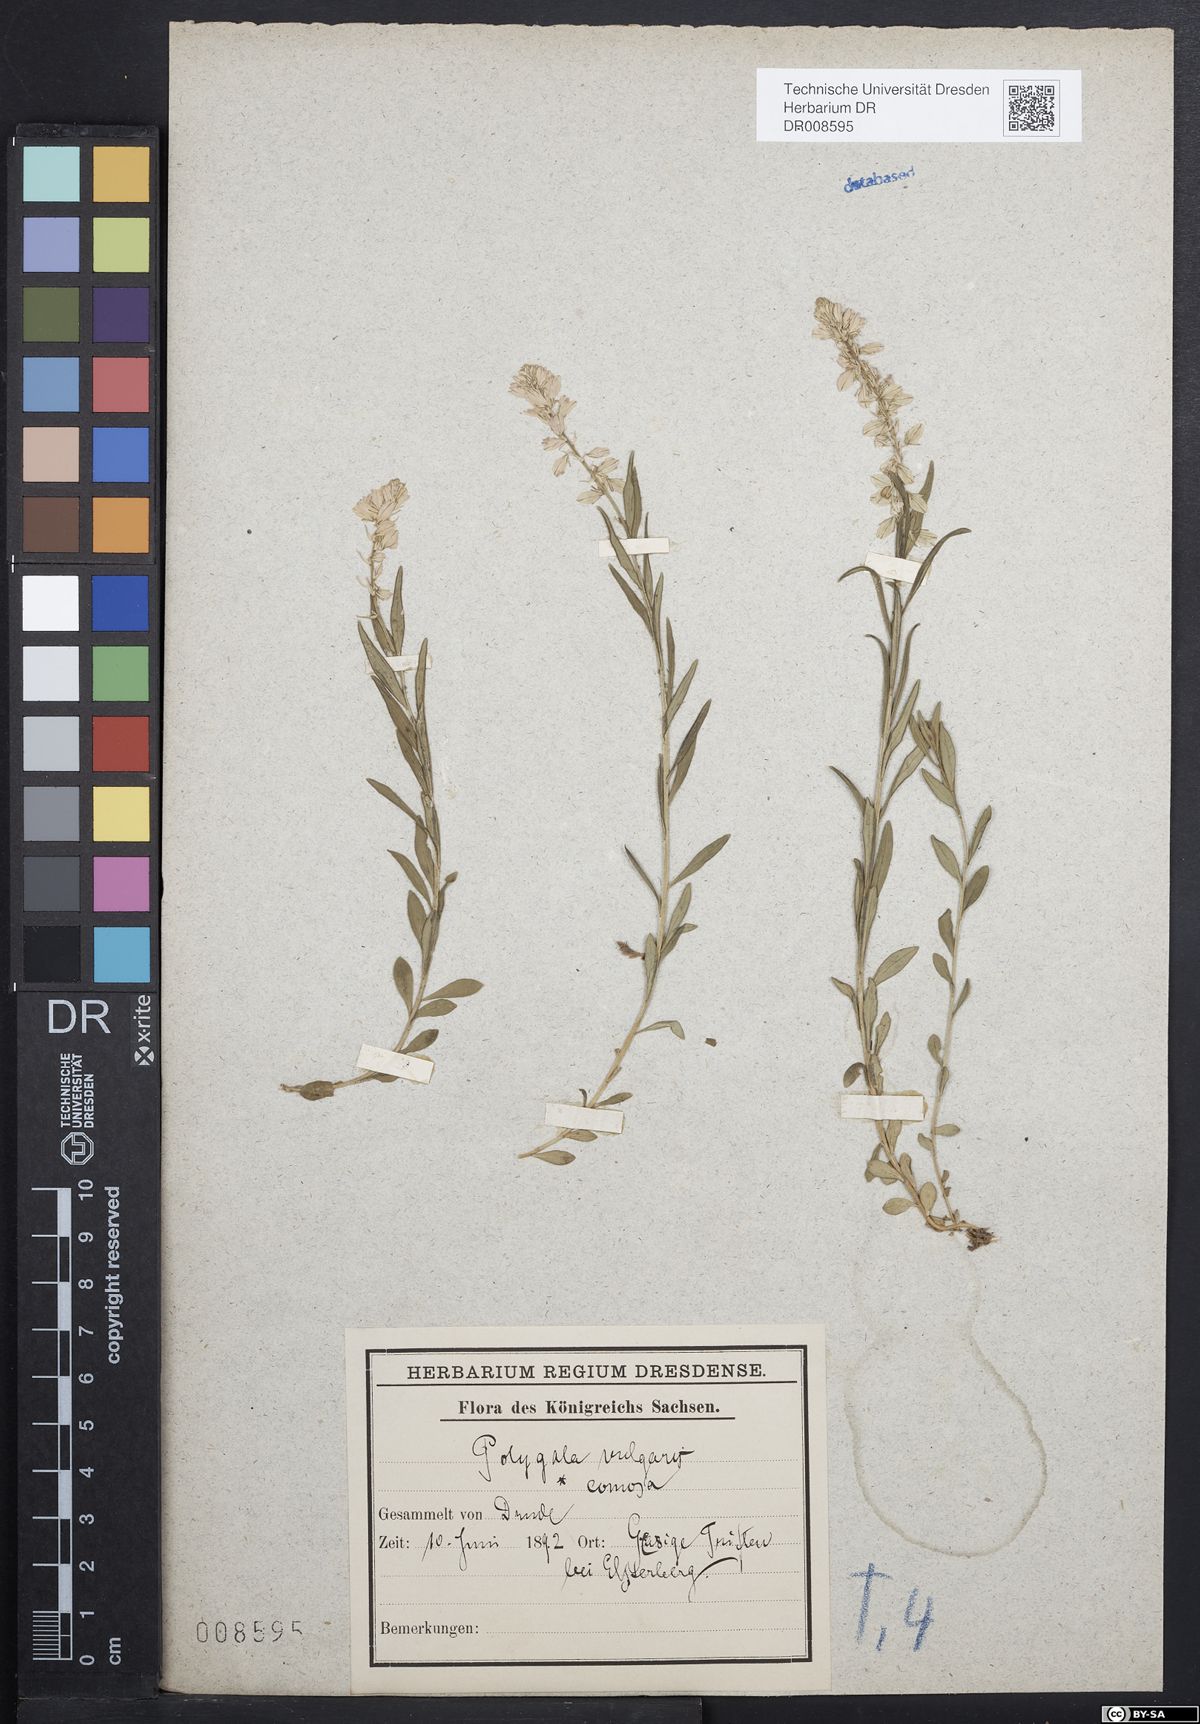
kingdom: Plantae
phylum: Tracheophyta
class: Magnoliopsida
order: Fabales
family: Polygalaceae
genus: Polygala
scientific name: Polygala comosa
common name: Tufted milkwort
